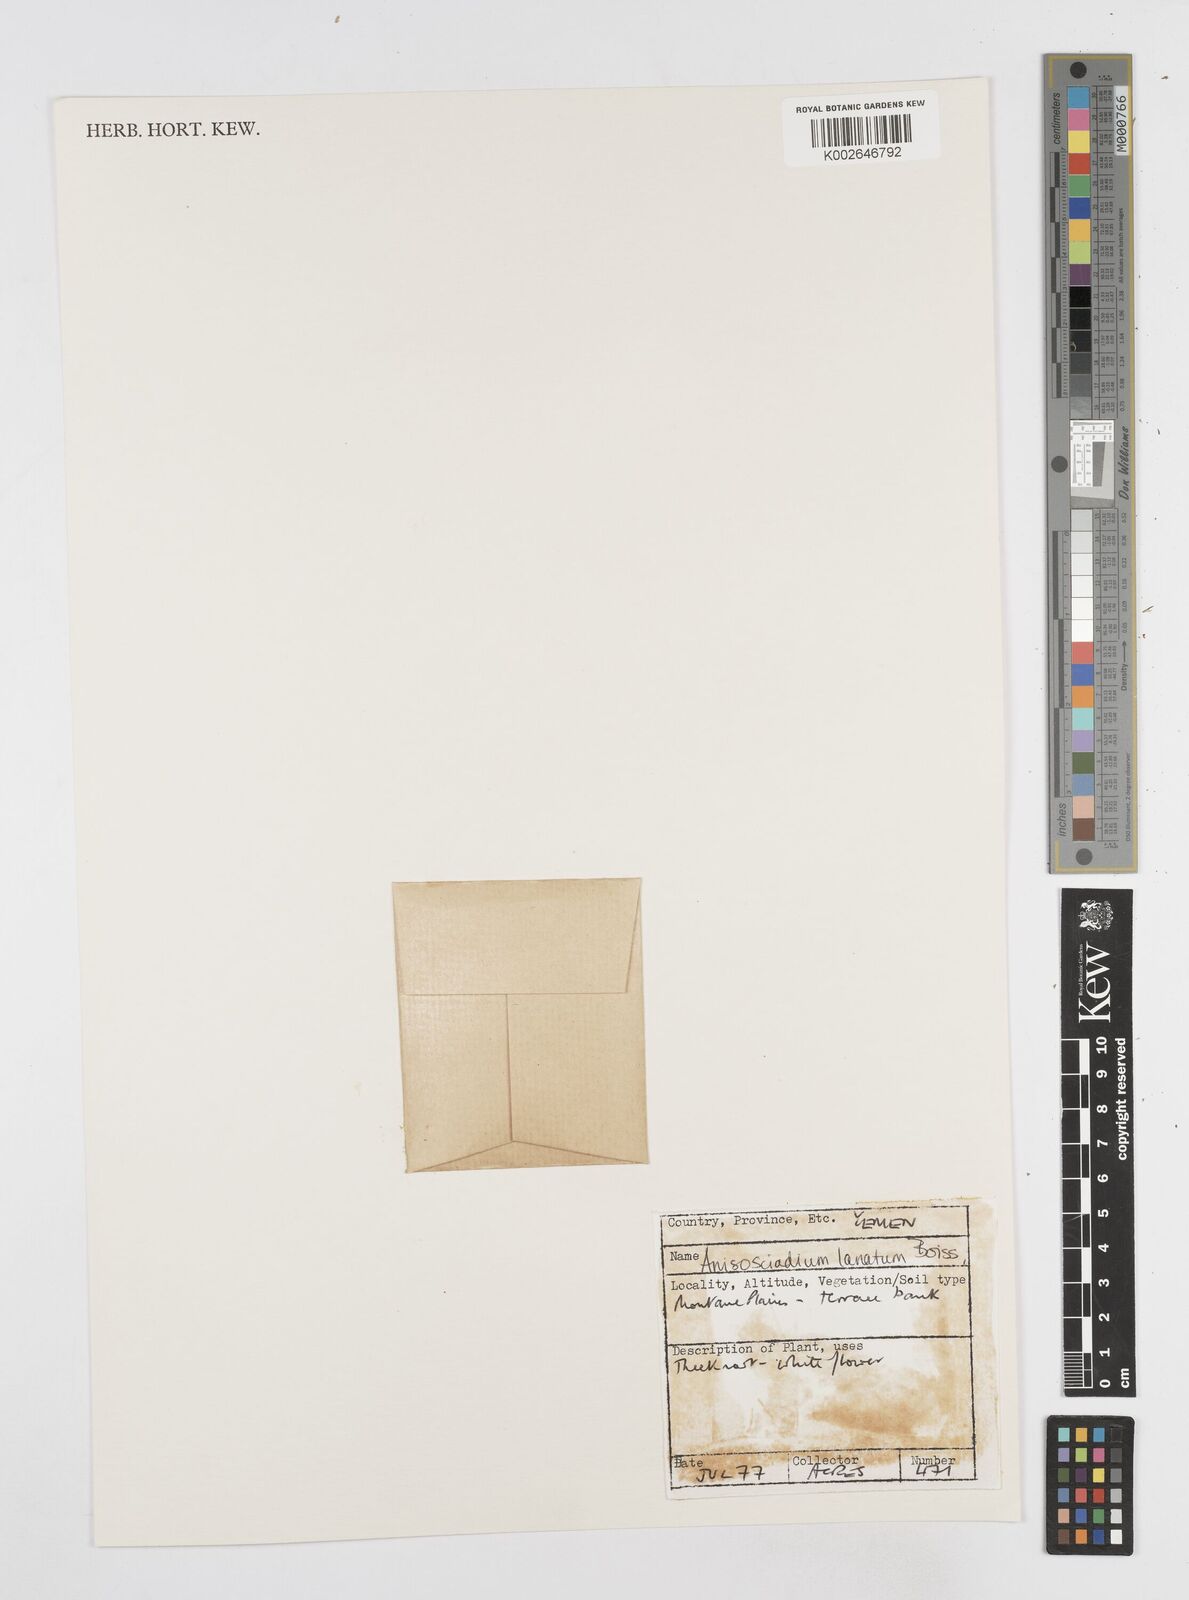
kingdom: Plantae
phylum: Tracheophyta
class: Magnoliopsida
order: Apiales
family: Apiaceae
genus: Anisosciadium
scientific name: Anisosciadium lanatum
